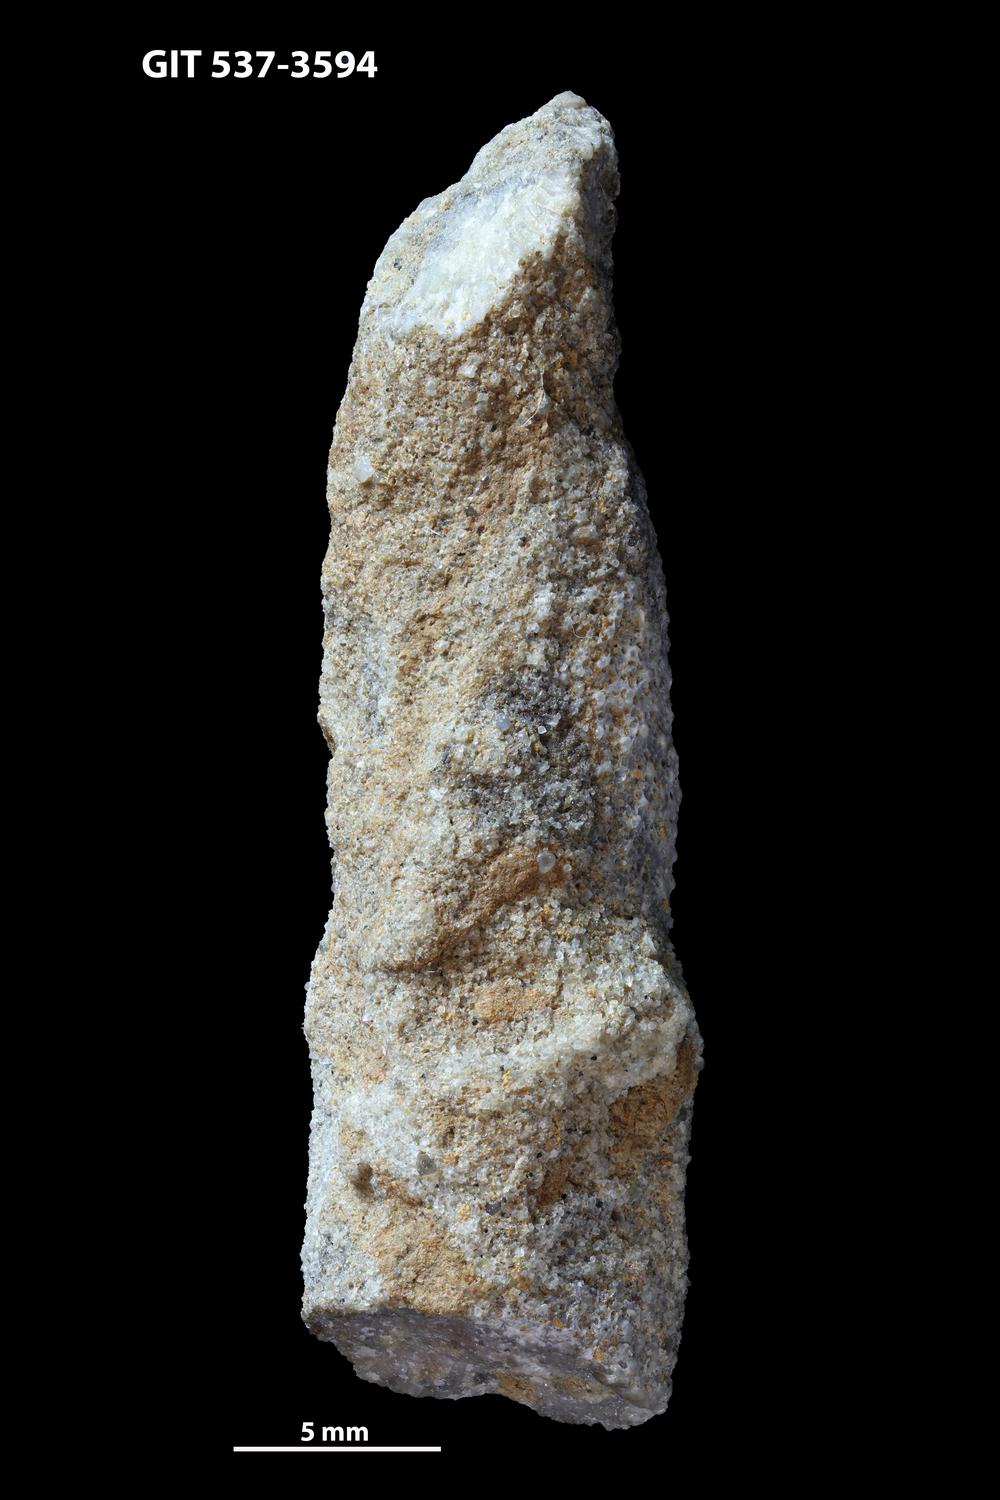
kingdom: Animalia
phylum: Bryozoa
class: Stenolaemata
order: Trepostomatida
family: Heterotrypidae
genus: Lioclemella
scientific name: Lioclemella spinea
